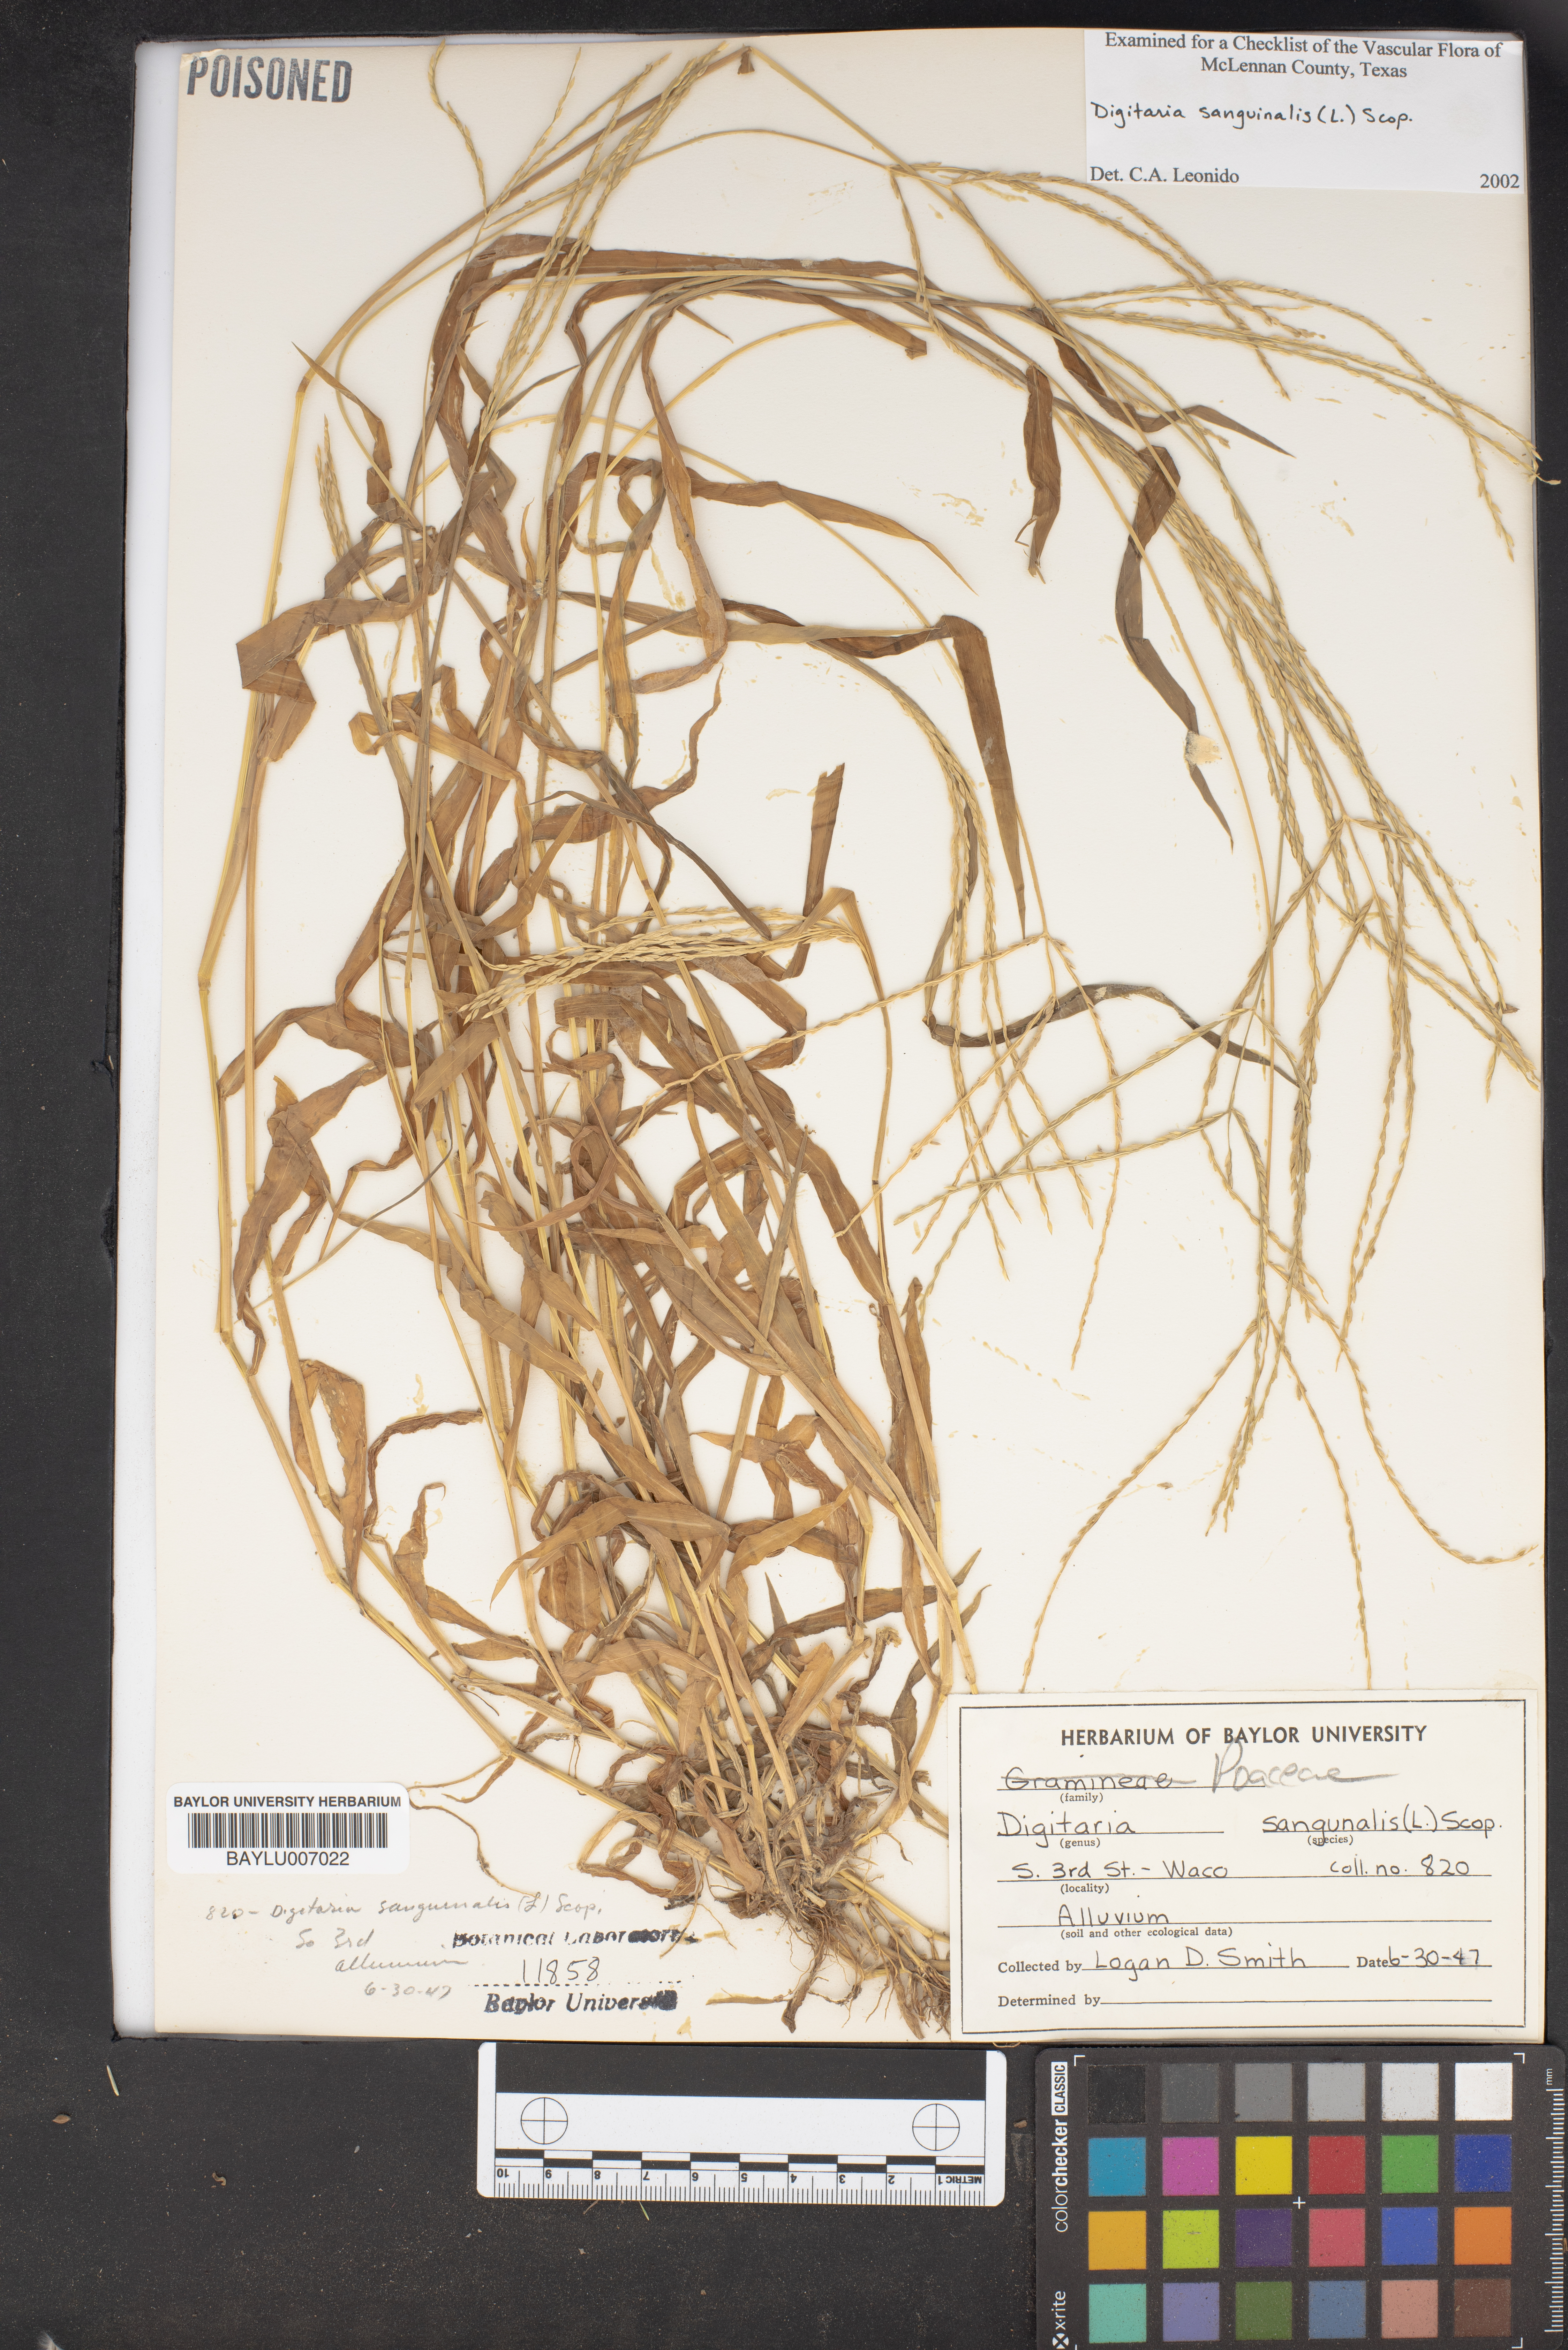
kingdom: Plantae
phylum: Tracheophyta
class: Liliopsida
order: Poales
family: Poaceae
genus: Digitaria
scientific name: Digitaria sanguinalis
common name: Hairy crabgrass
